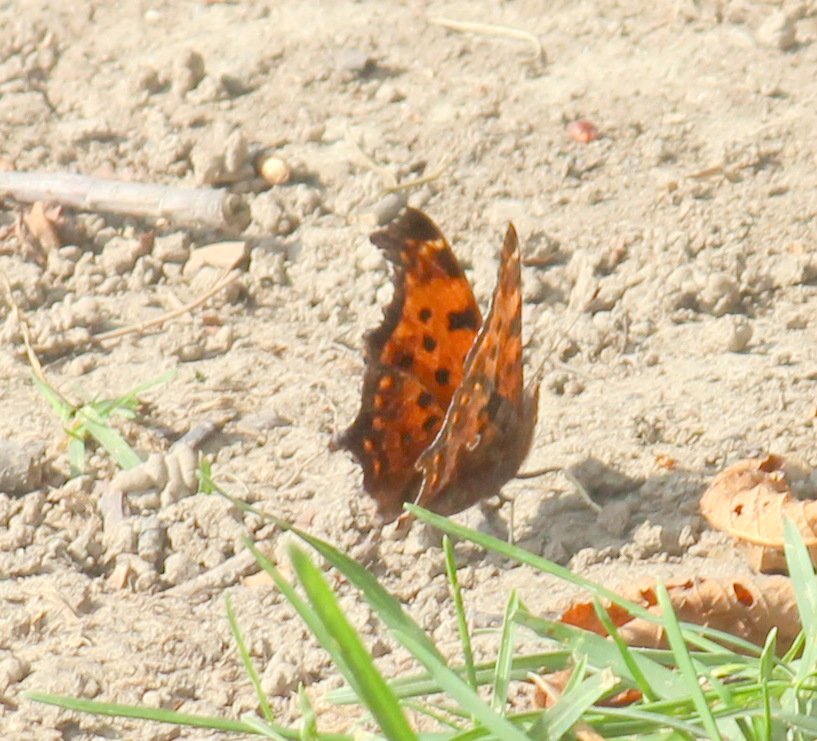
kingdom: Animalia
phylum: Arthropoda
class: Insecta
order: Lepidoptera
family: Nymphalidae
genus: Polygonia
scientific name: Polygonia comma
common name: Eastern Comma
